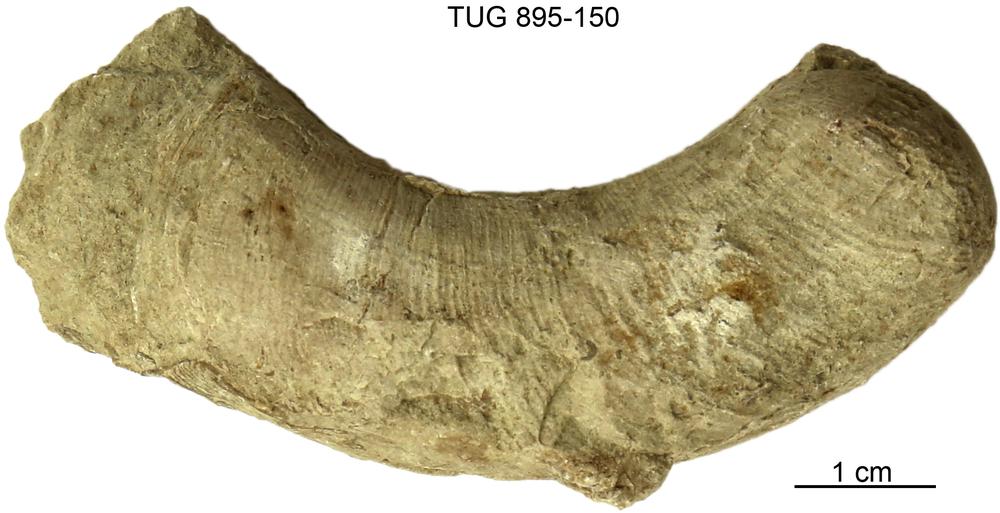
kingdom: Animalia
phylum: Mollusca
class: Cephalopoda
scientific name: Cephalopoda
